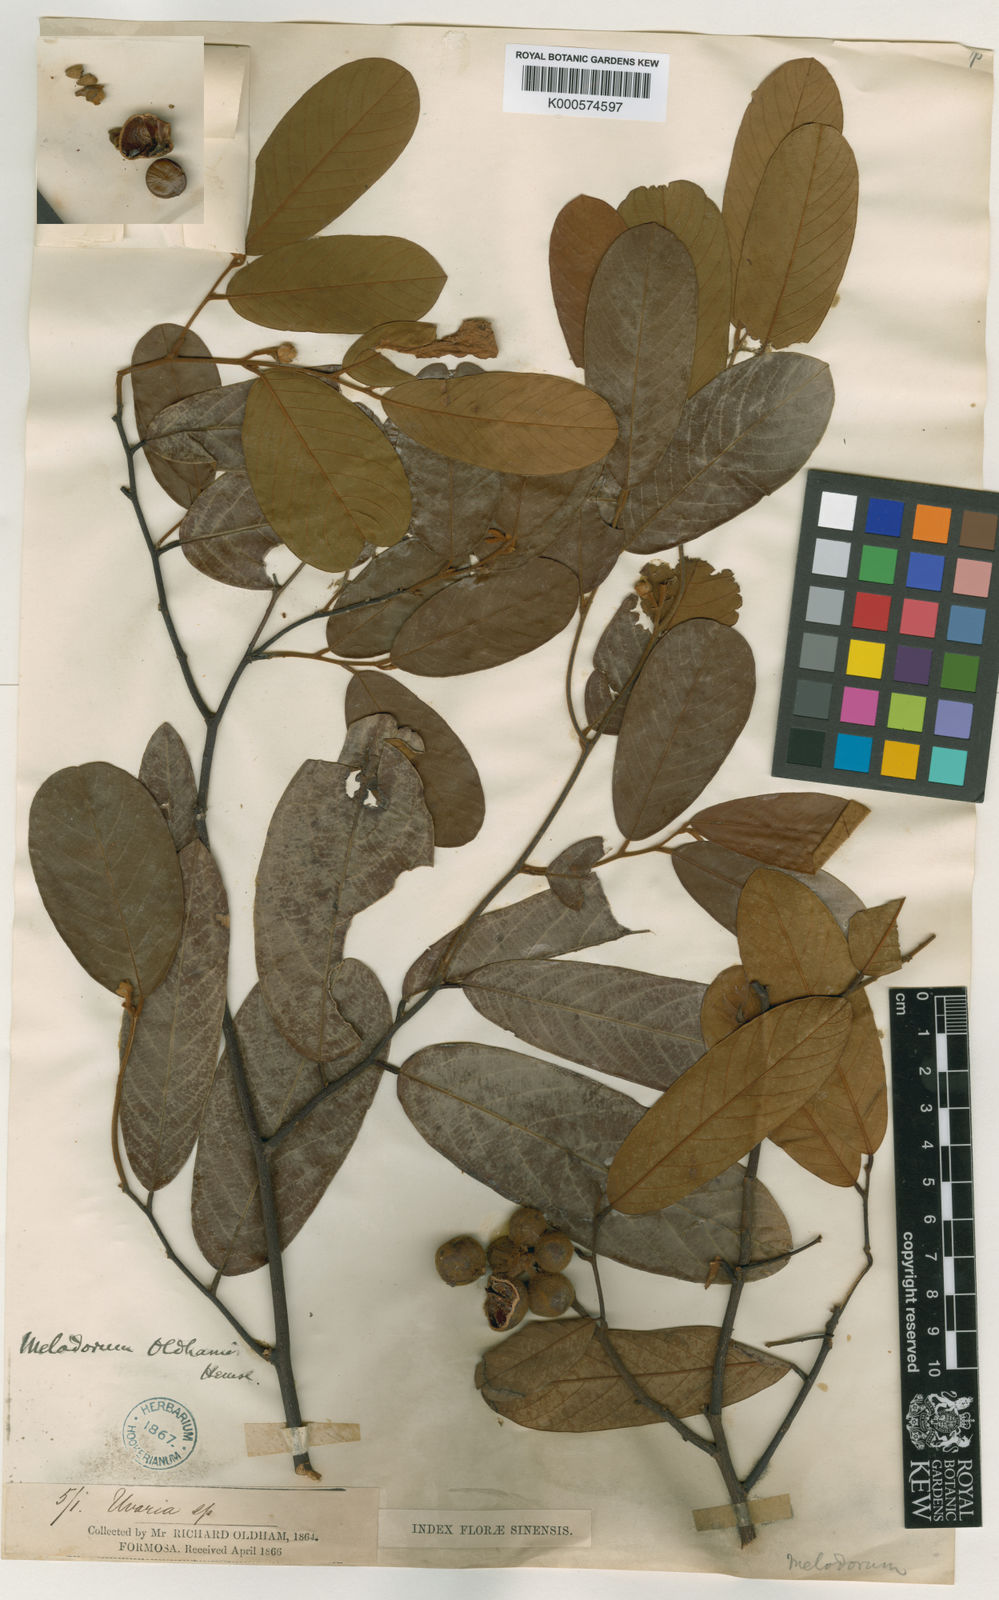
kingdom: Plantae
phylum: Tracheophyta
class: Magnoliopsida
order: Magnoliales
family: Annonaceae
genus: Fissistigma
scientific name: Fissistigma oldhamii
